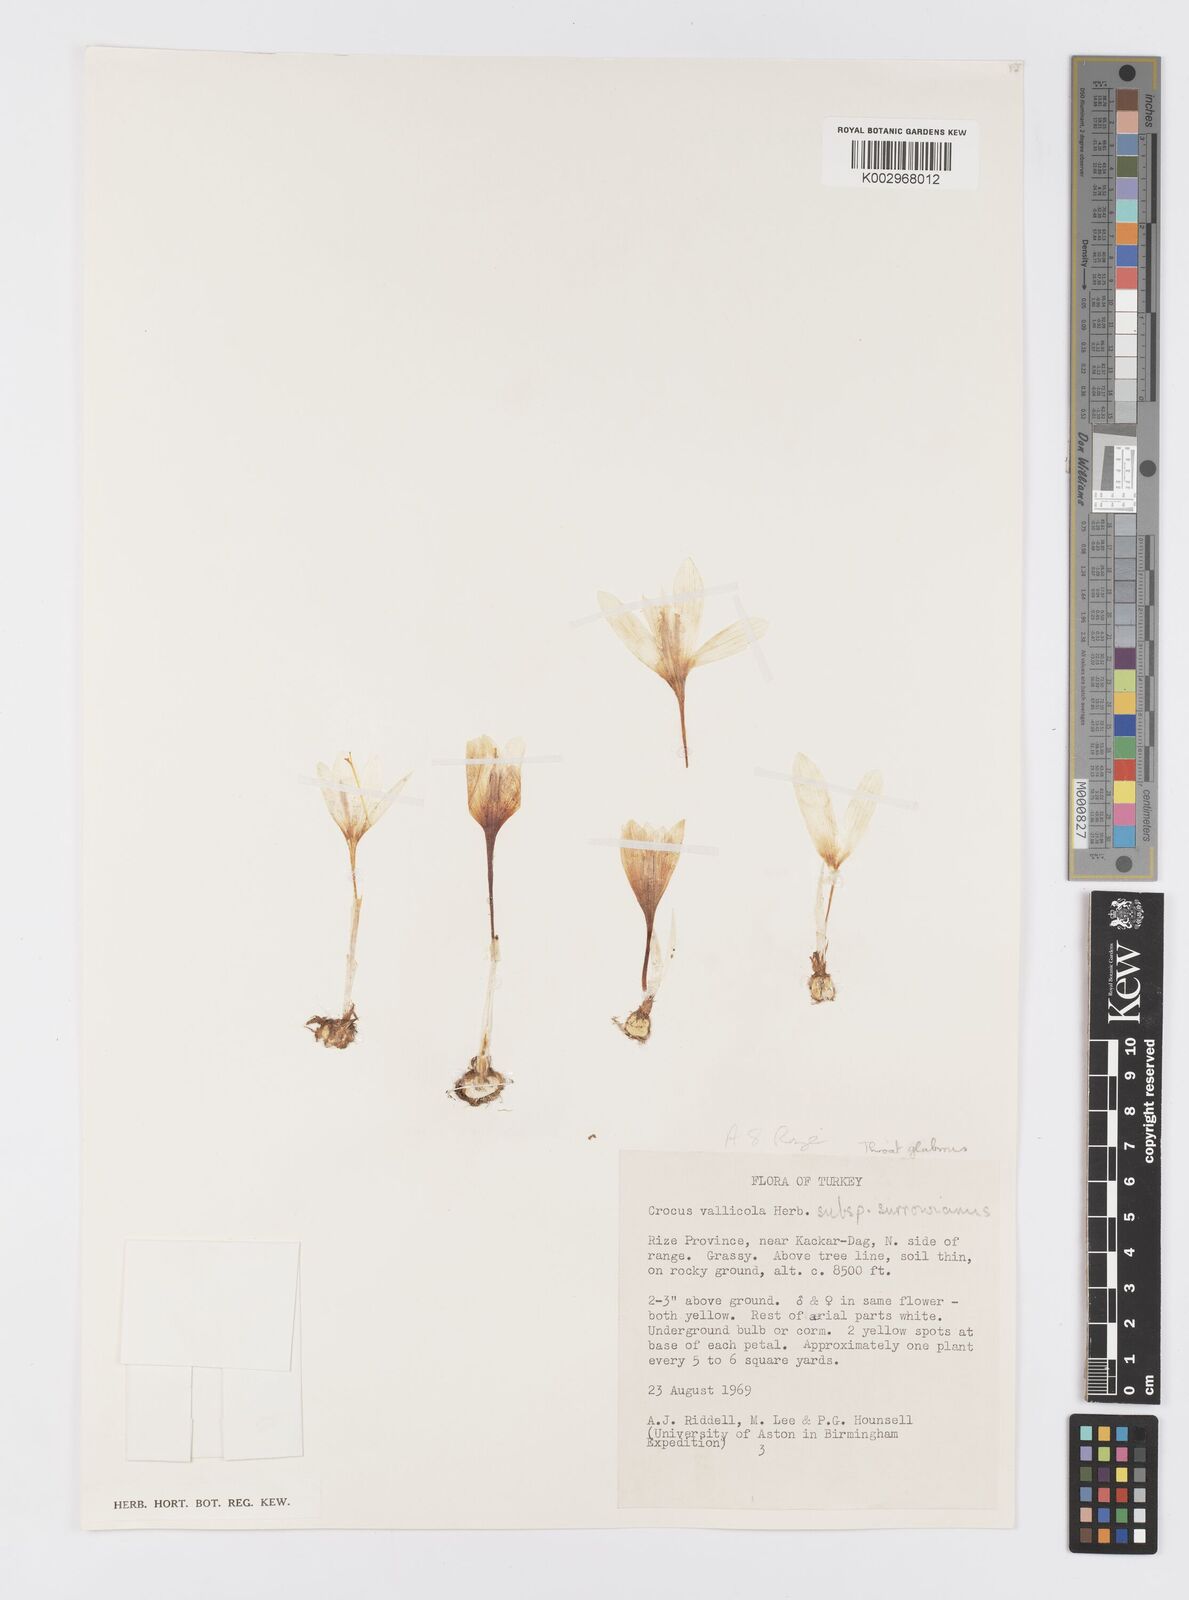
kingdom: Plantae
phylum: Tracheophyta
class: Liliopsida
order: Asparagales
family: Iridaceae
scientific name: Iridaceae
